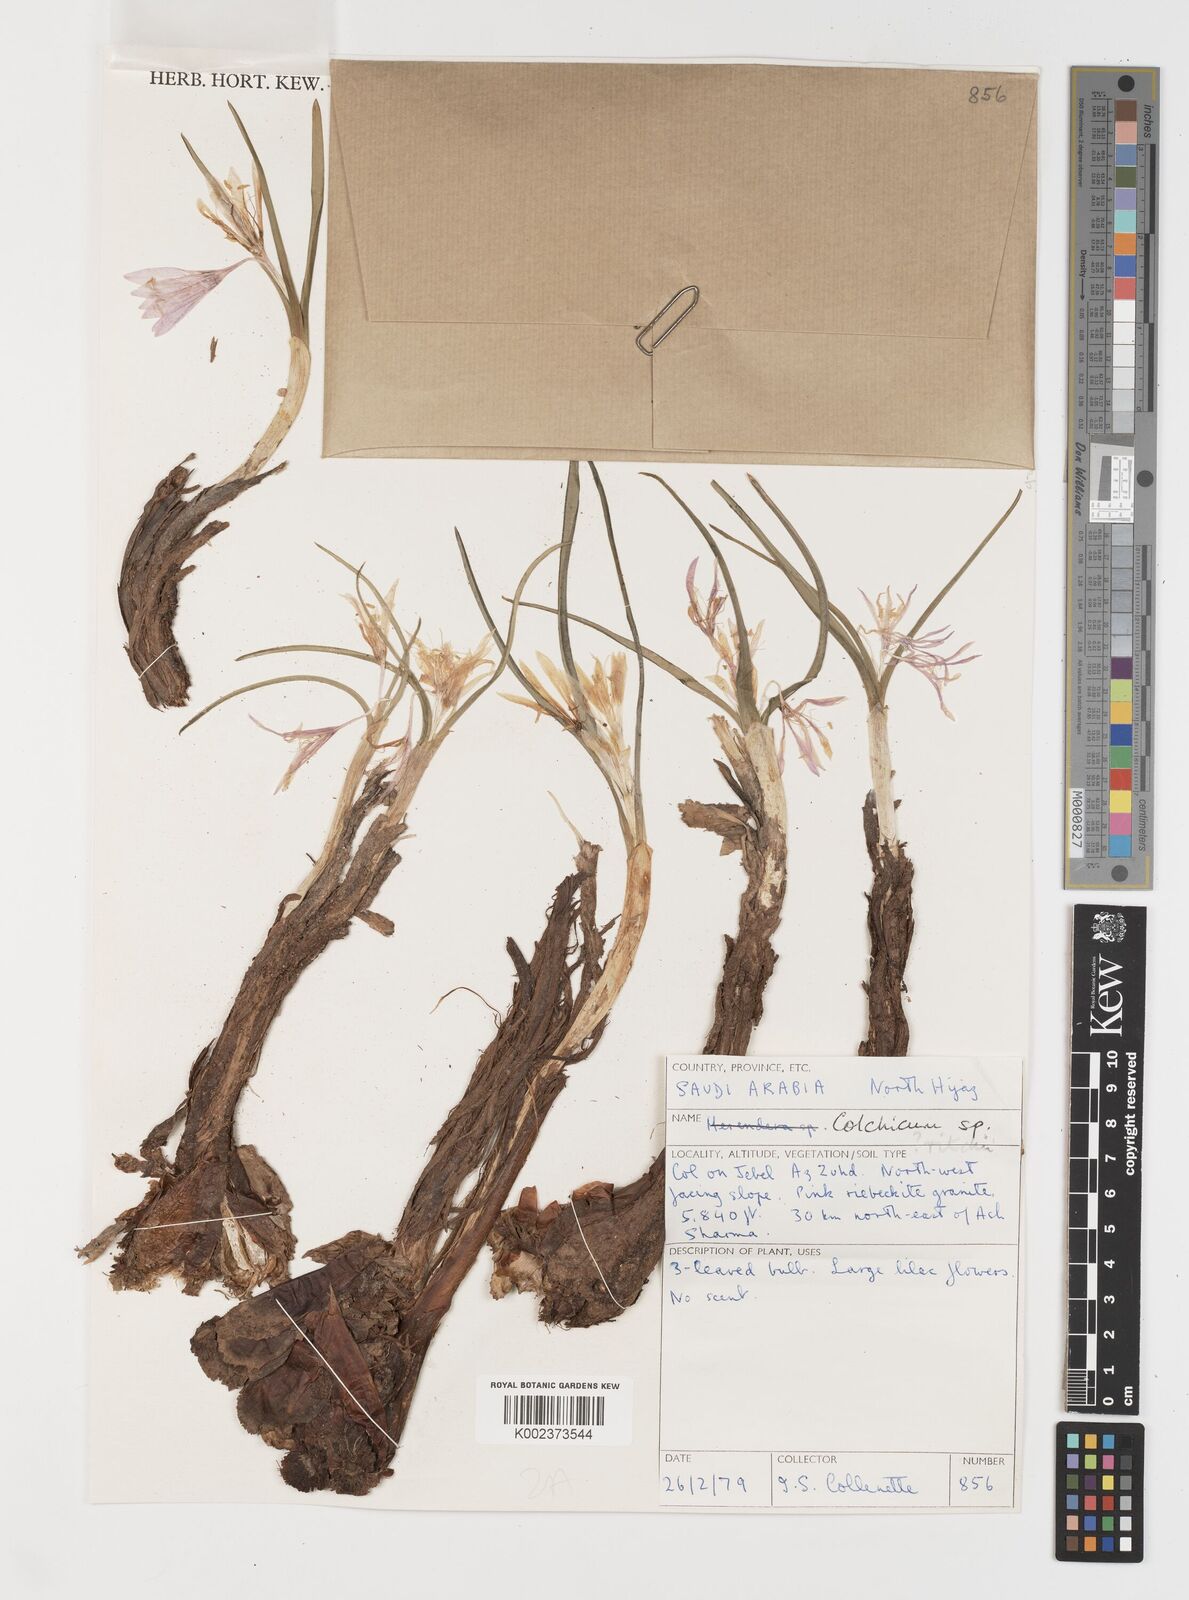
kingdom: Plantae
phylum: Tracheophyta
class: Liliopsida
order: Liliales
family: Colchicaceae
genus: Colchicum
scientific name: Colchicum ritchii
